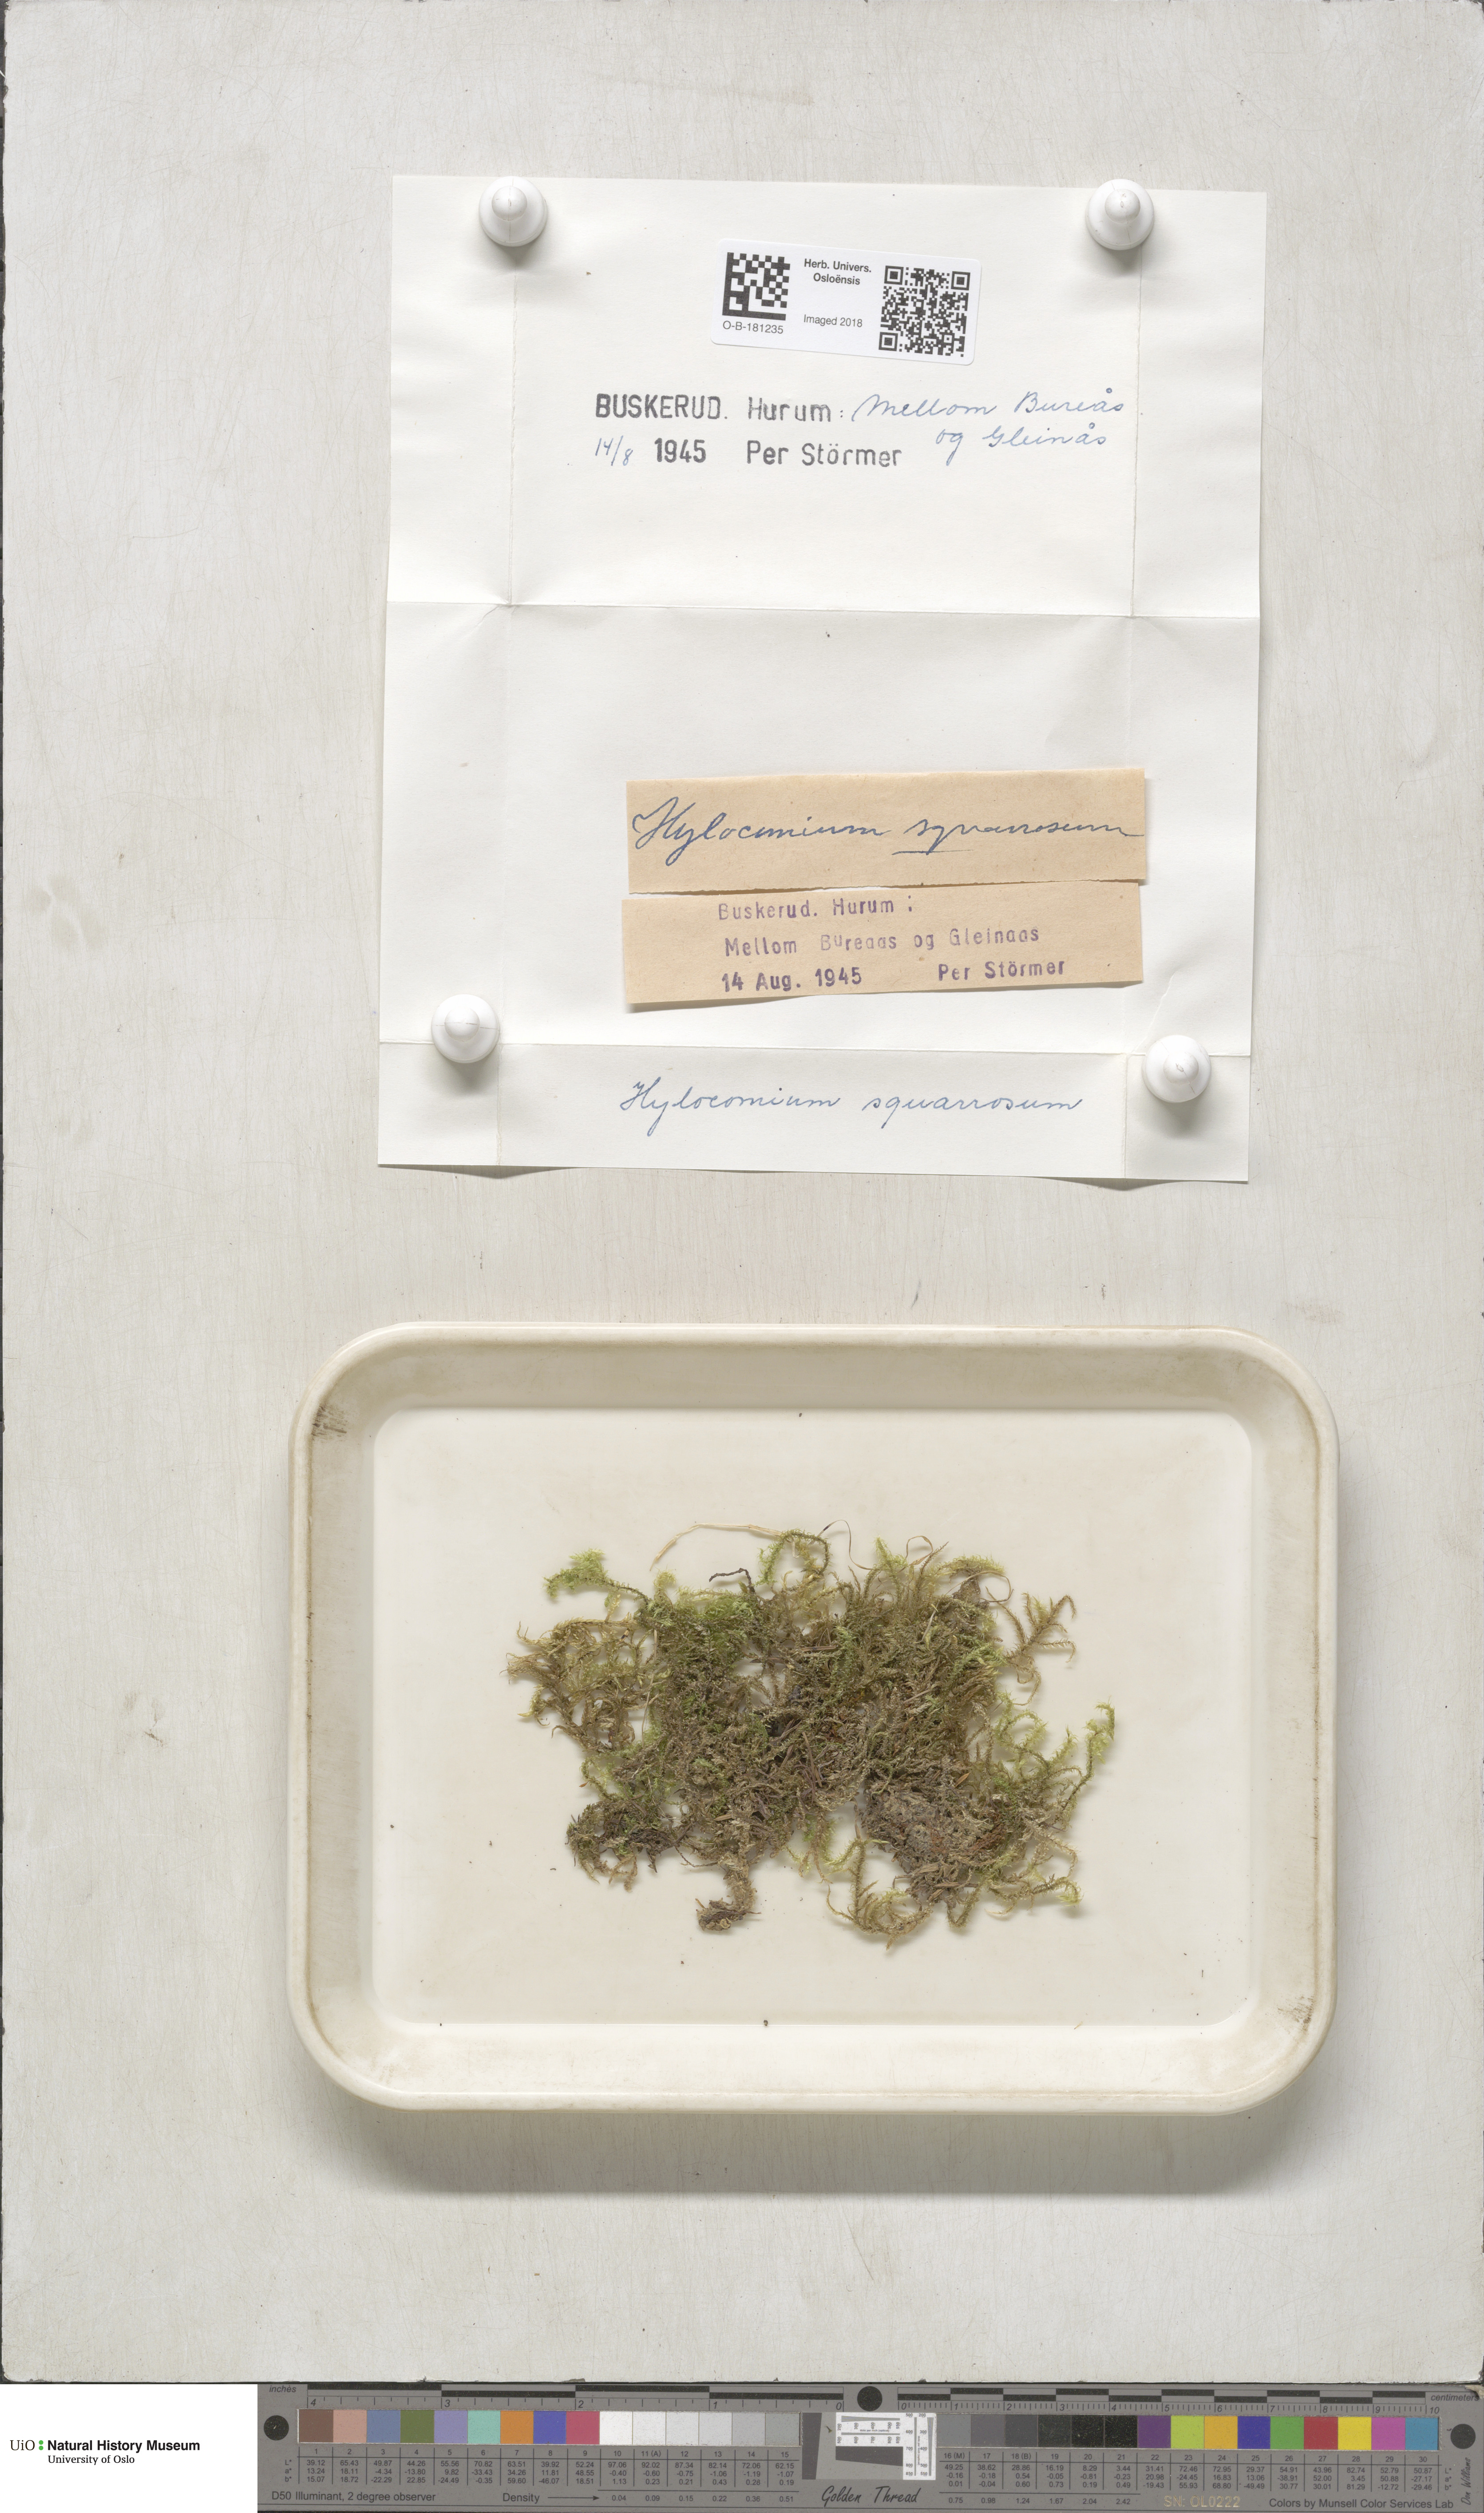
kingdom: Plantae
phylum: Bryophyta
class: Bryopsida
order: Hypnales
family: Hylocomiaceae
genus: Rhytidiadelphus
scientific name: Rhytidiadelphus squarrosus
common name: Springy turf-moss
